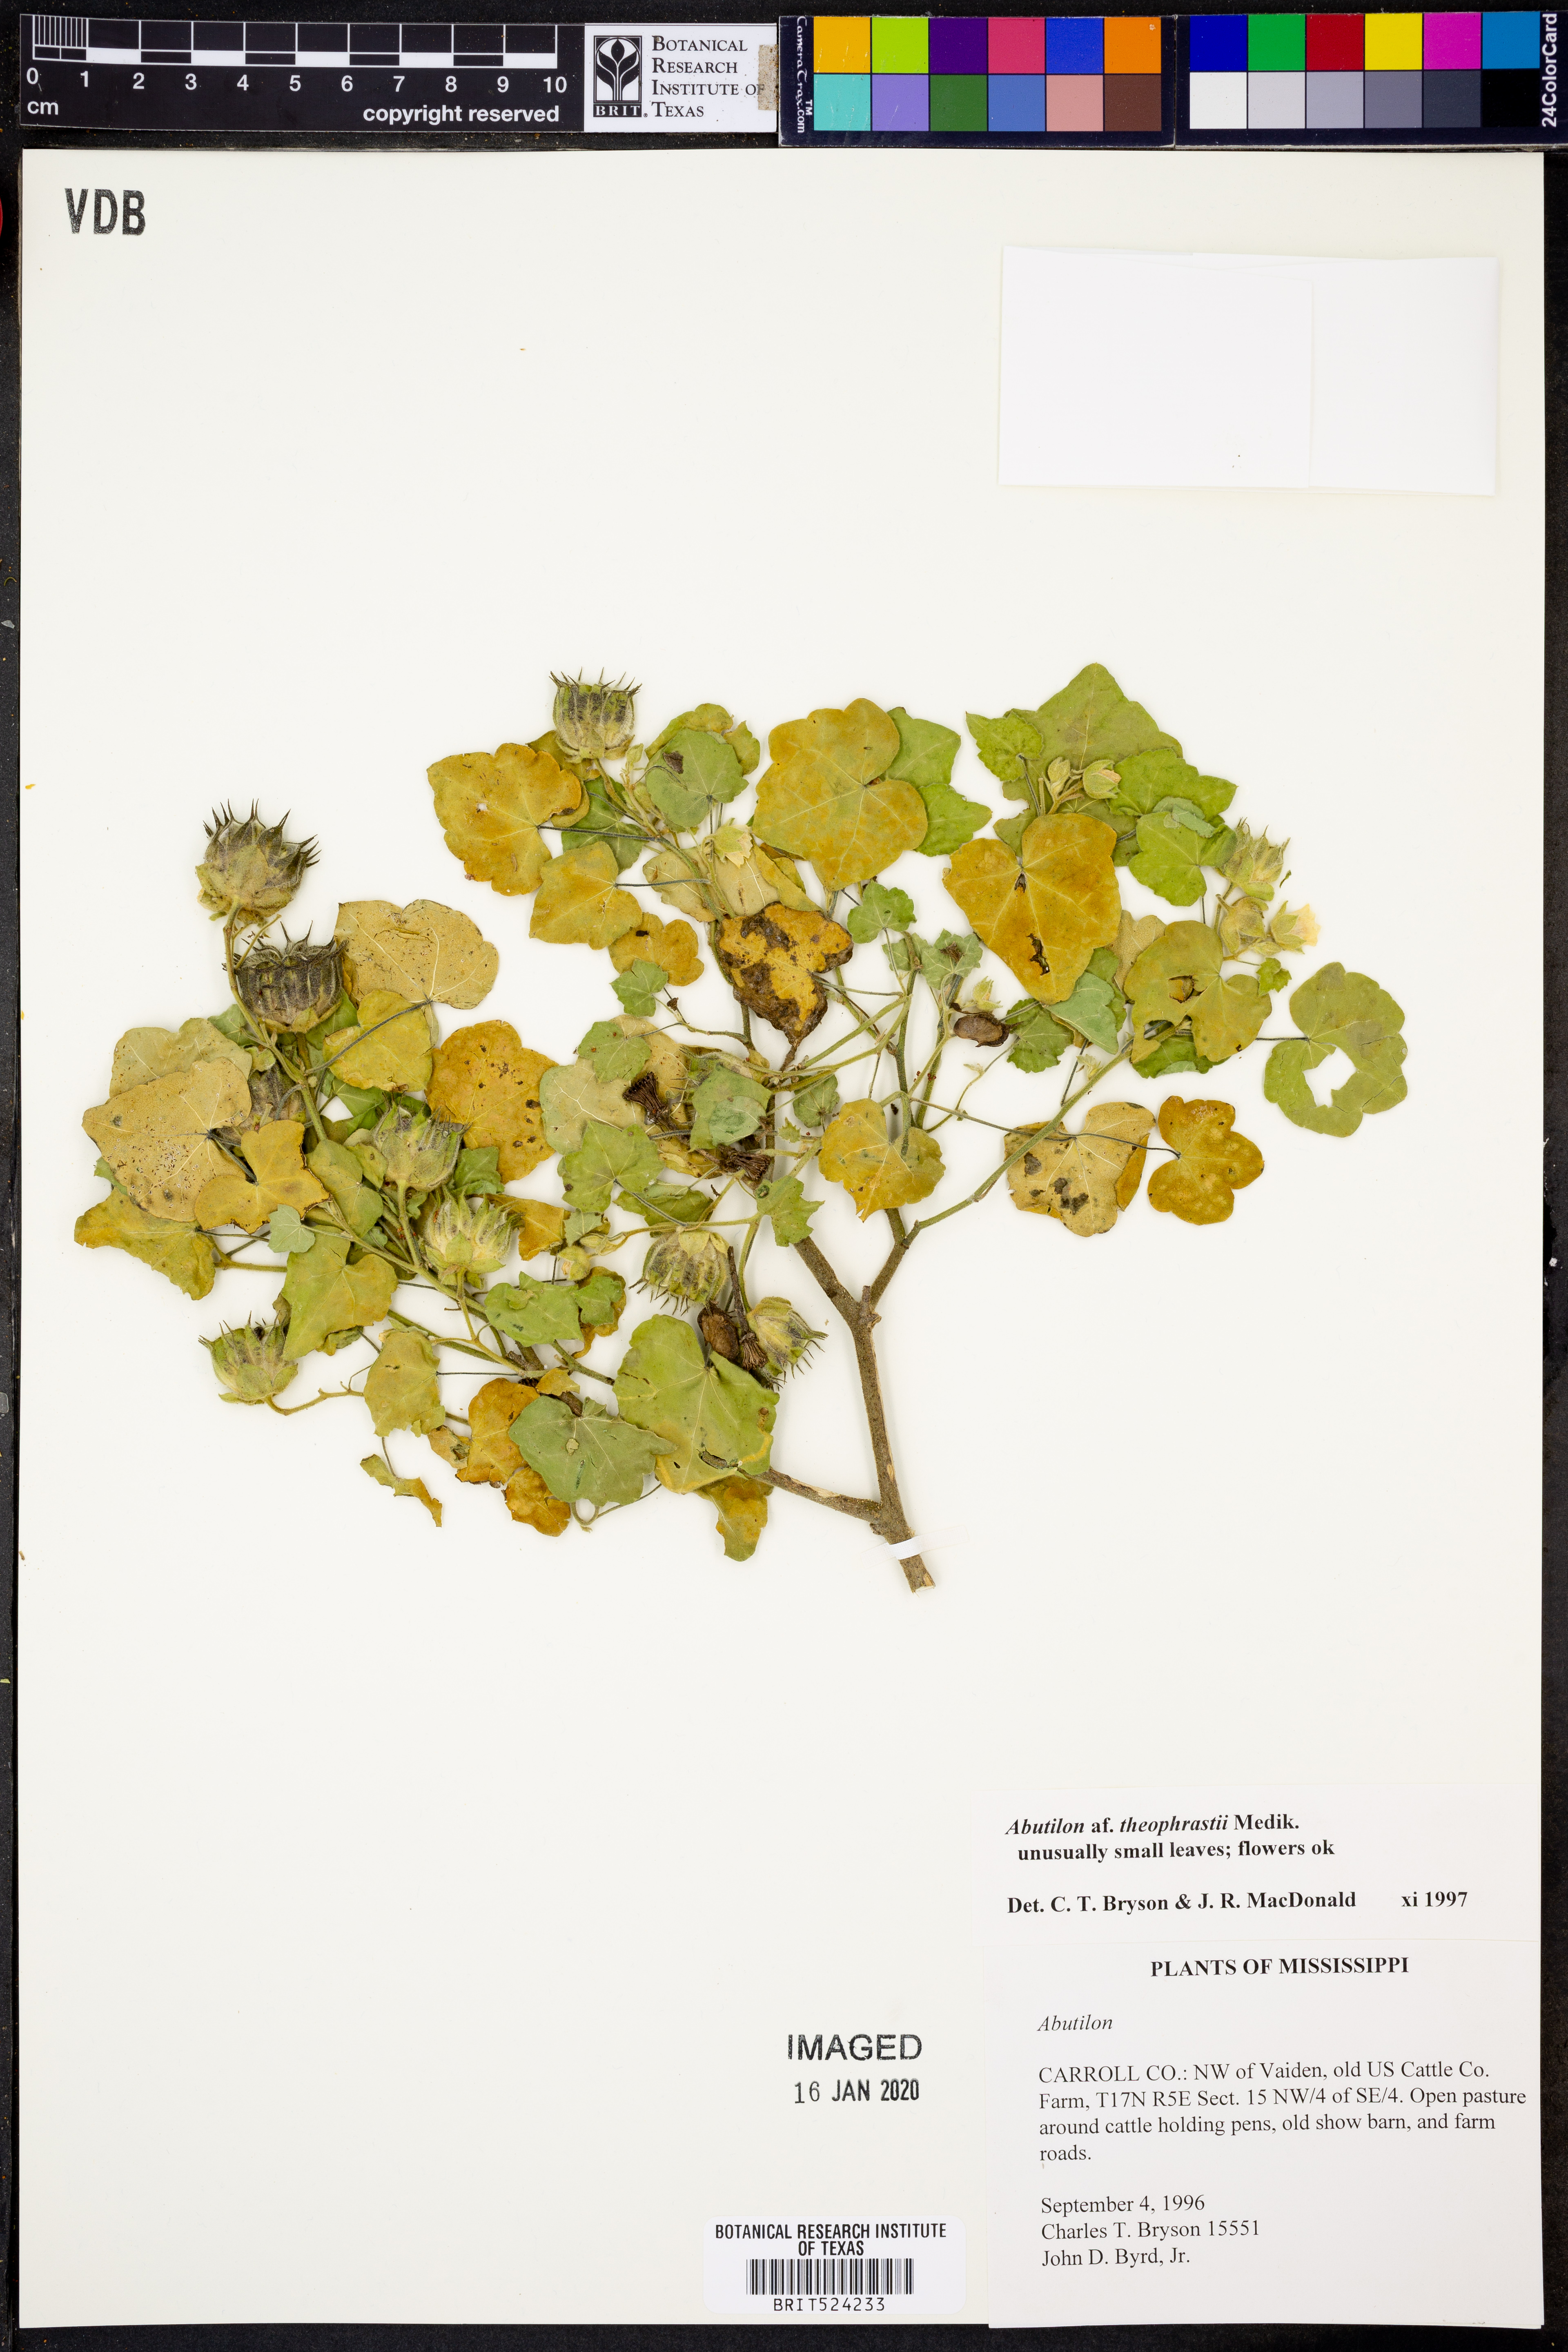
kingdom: Plantae
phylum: Tracheophyta
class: Magnoliopsida
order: Malvales
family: Malvaceae
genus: Abutilon
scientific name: Abutilon theophrasti
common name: Velvetleaf
